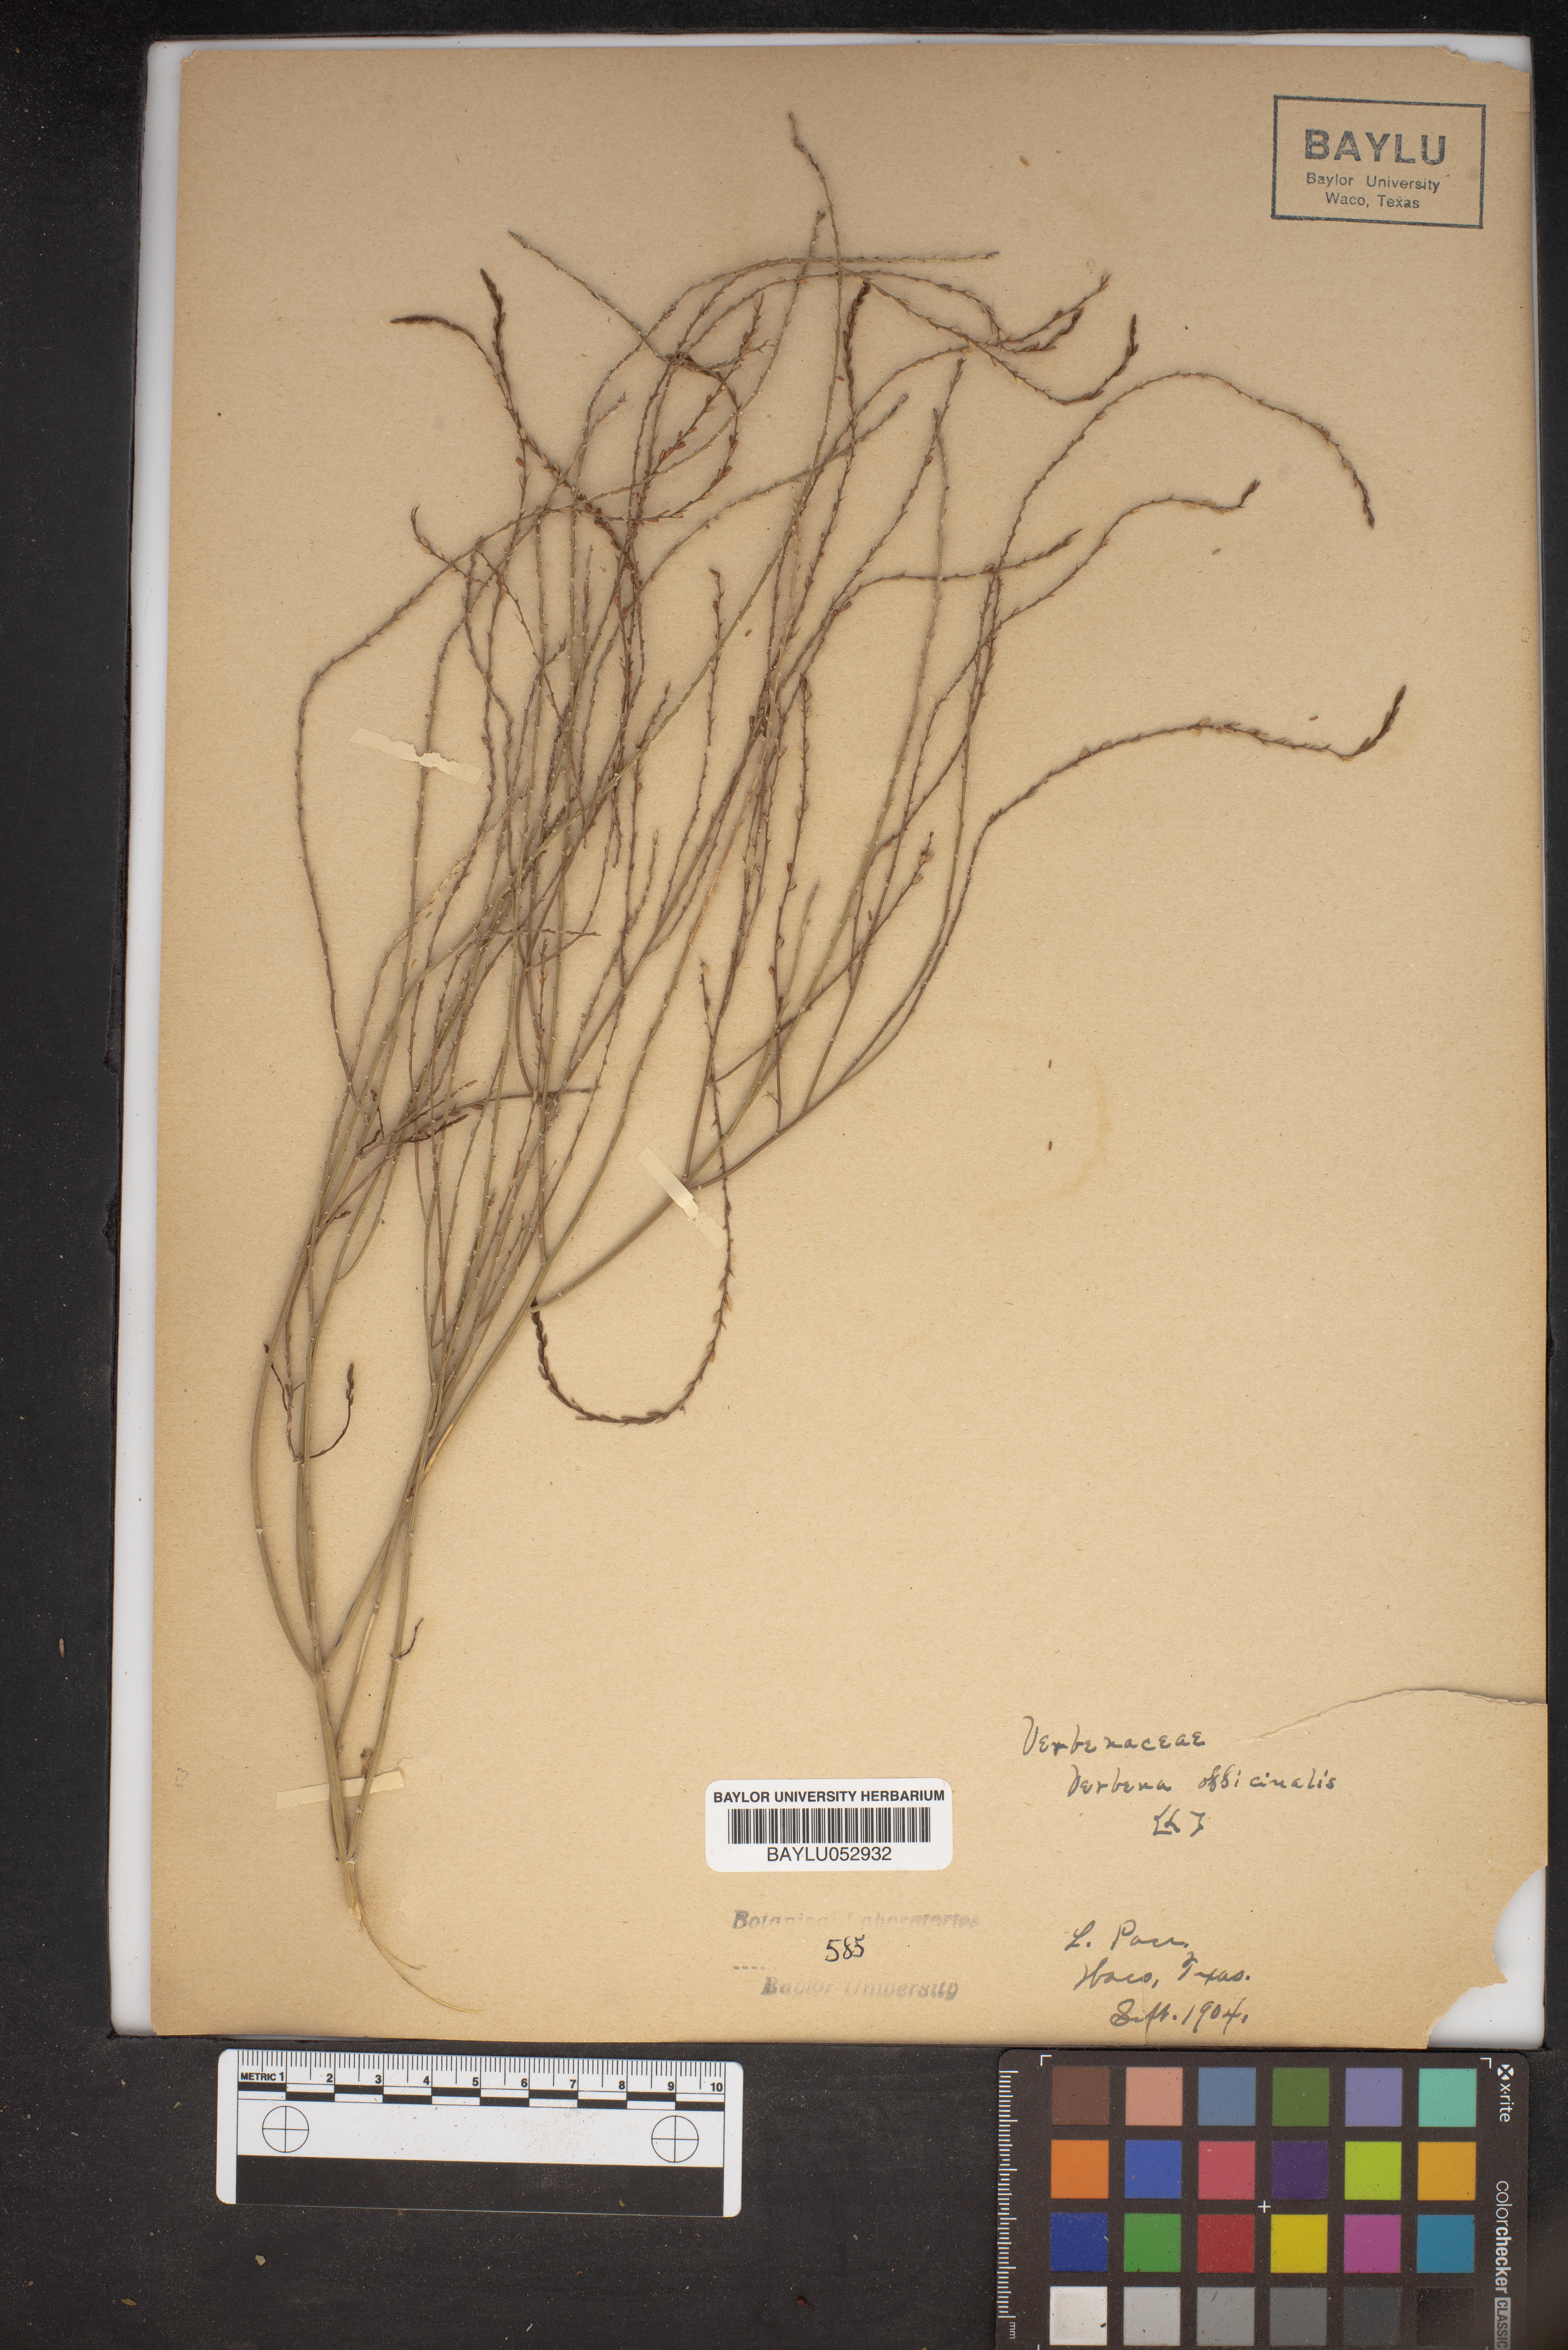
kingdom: Plantae
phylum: Tracheophyta
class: Magnoliopsida
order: Lamiales
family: Verbenaceae
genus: Verbena
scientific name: Verbena officinalis
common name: Vervain
